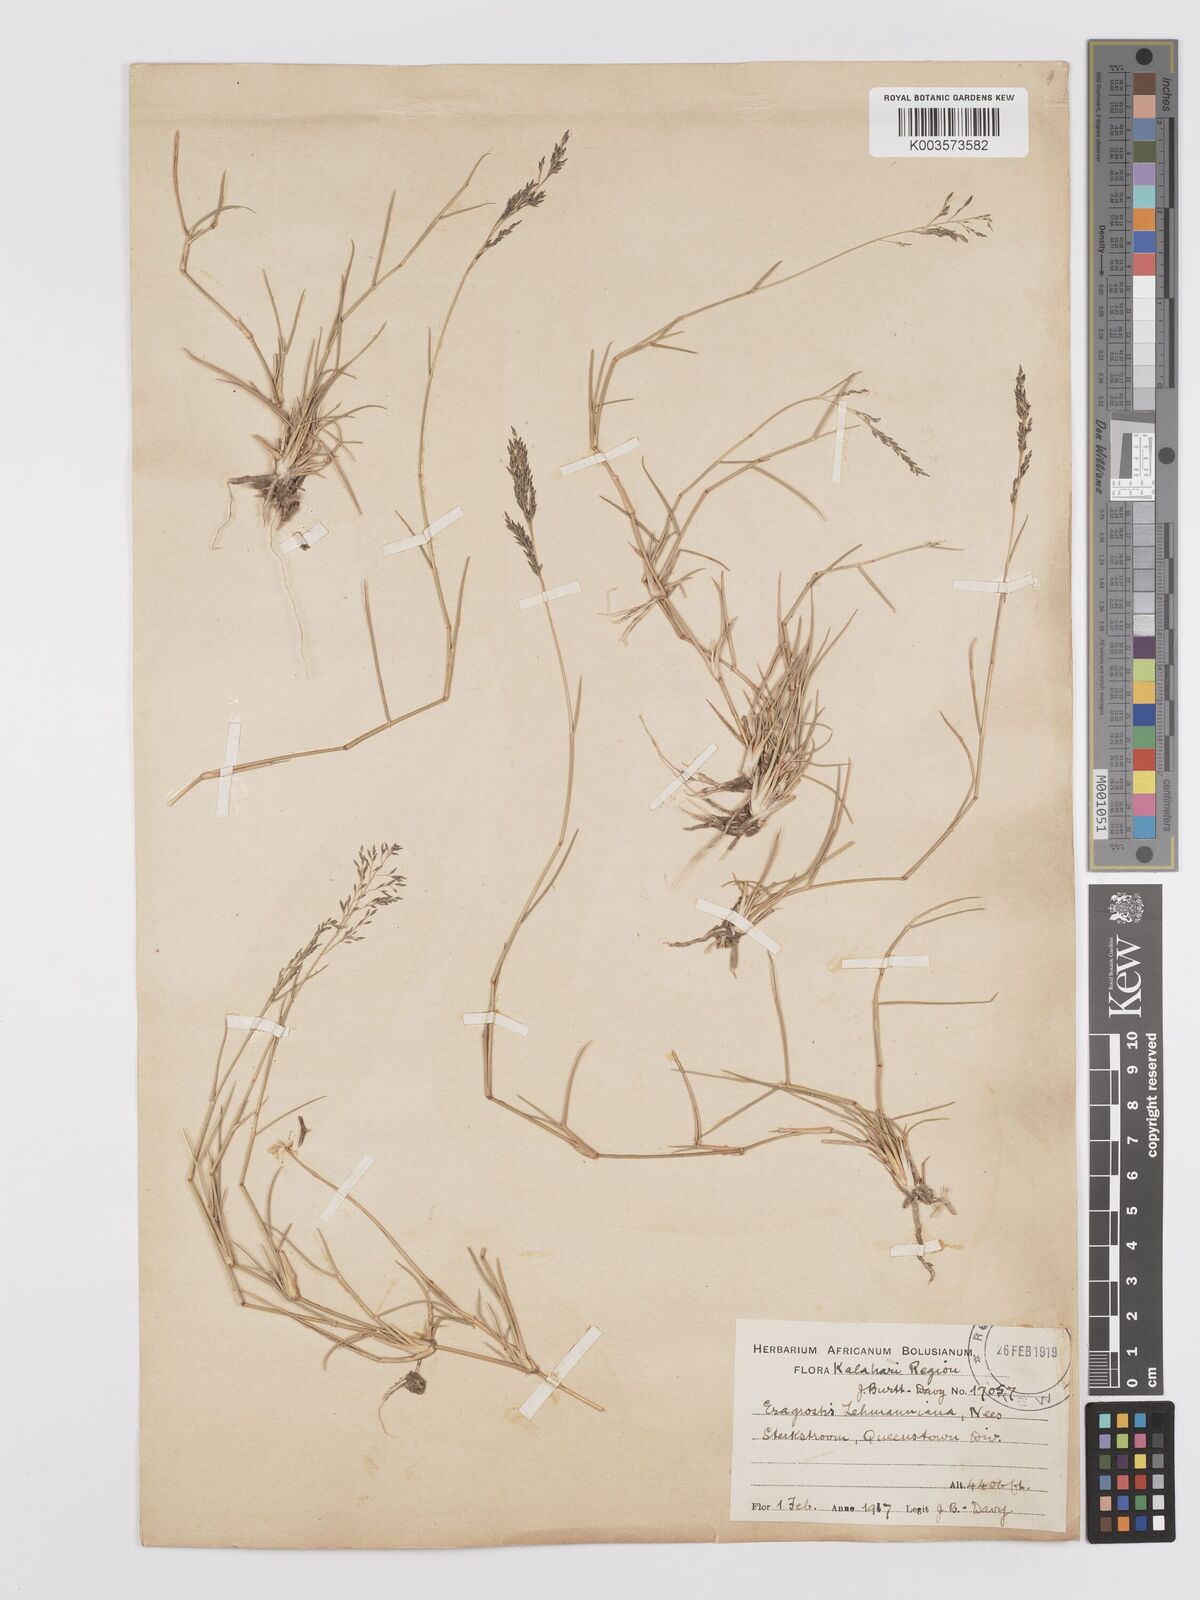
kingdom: Plantae
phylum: Tracheophyta
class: Liliopsida
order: Poales
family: Poaceae
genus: Eragrostis
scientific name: Eragrostis lehmanniana
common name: Lehmann lovegrass
